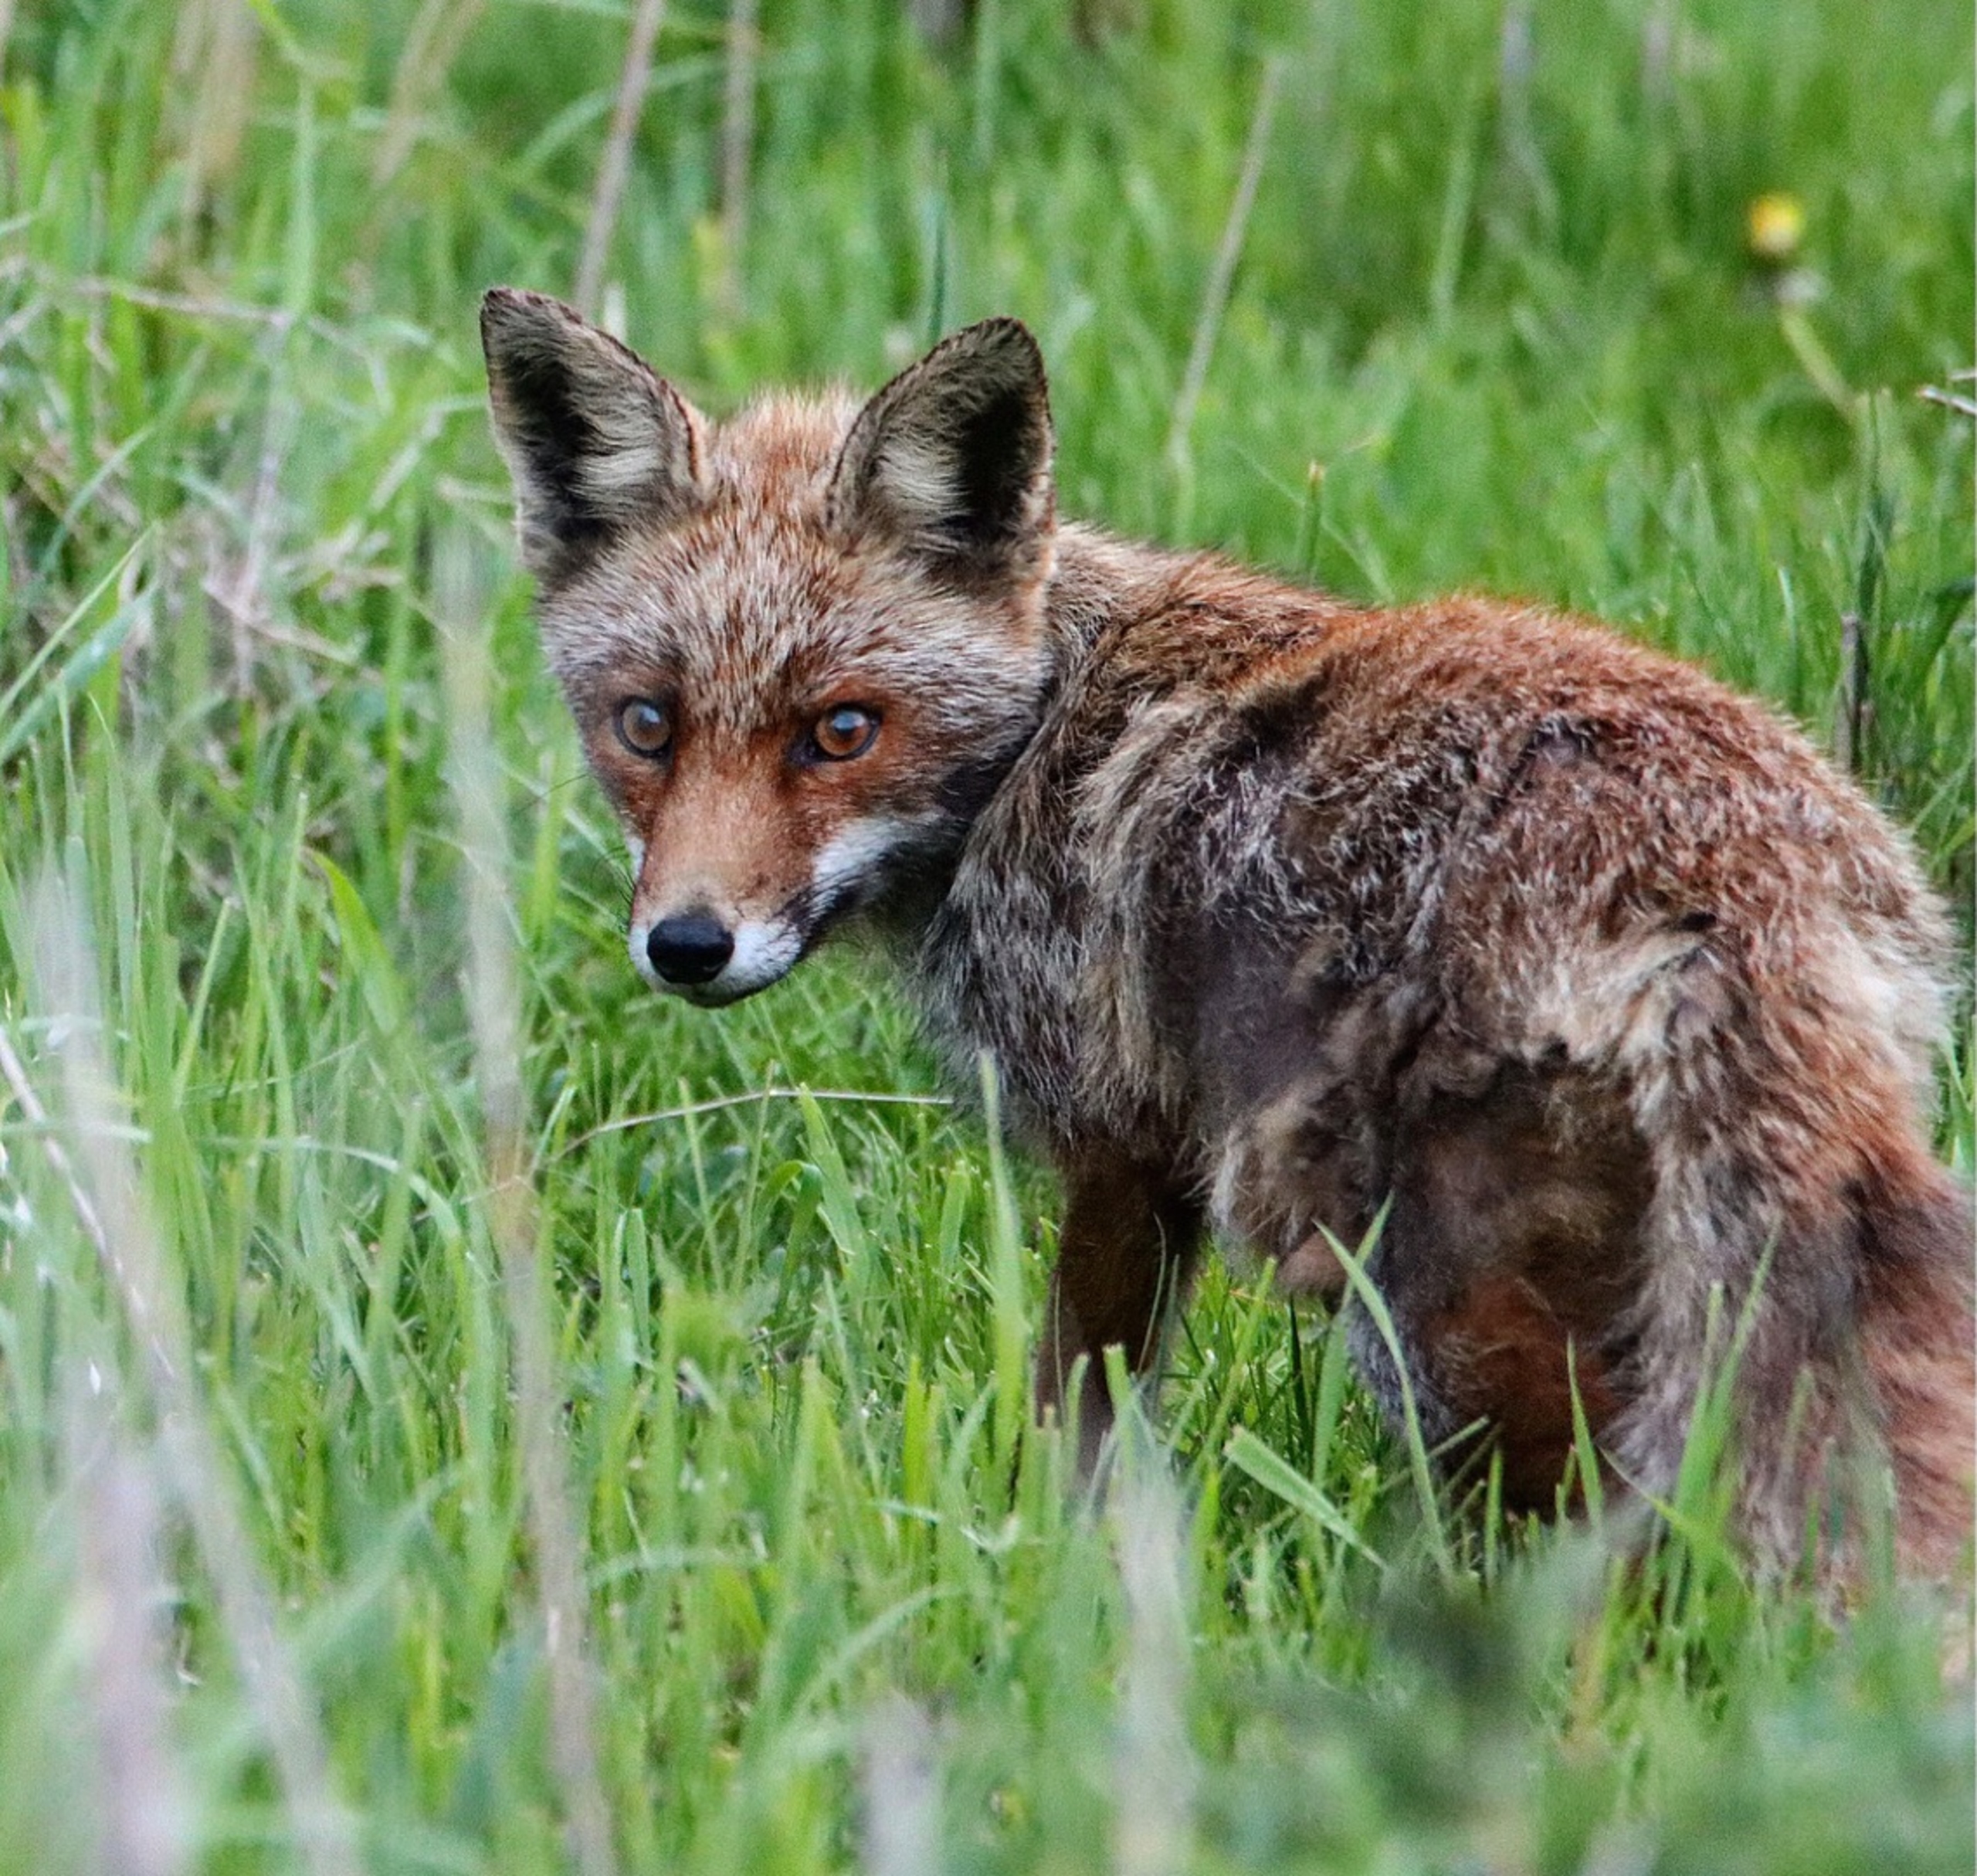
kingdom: Animalia
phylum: Chordata
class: Mammalia
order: Carnivora
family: Canidae
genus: Vulpes
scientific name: Vulpes vulpes
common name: Ræv
